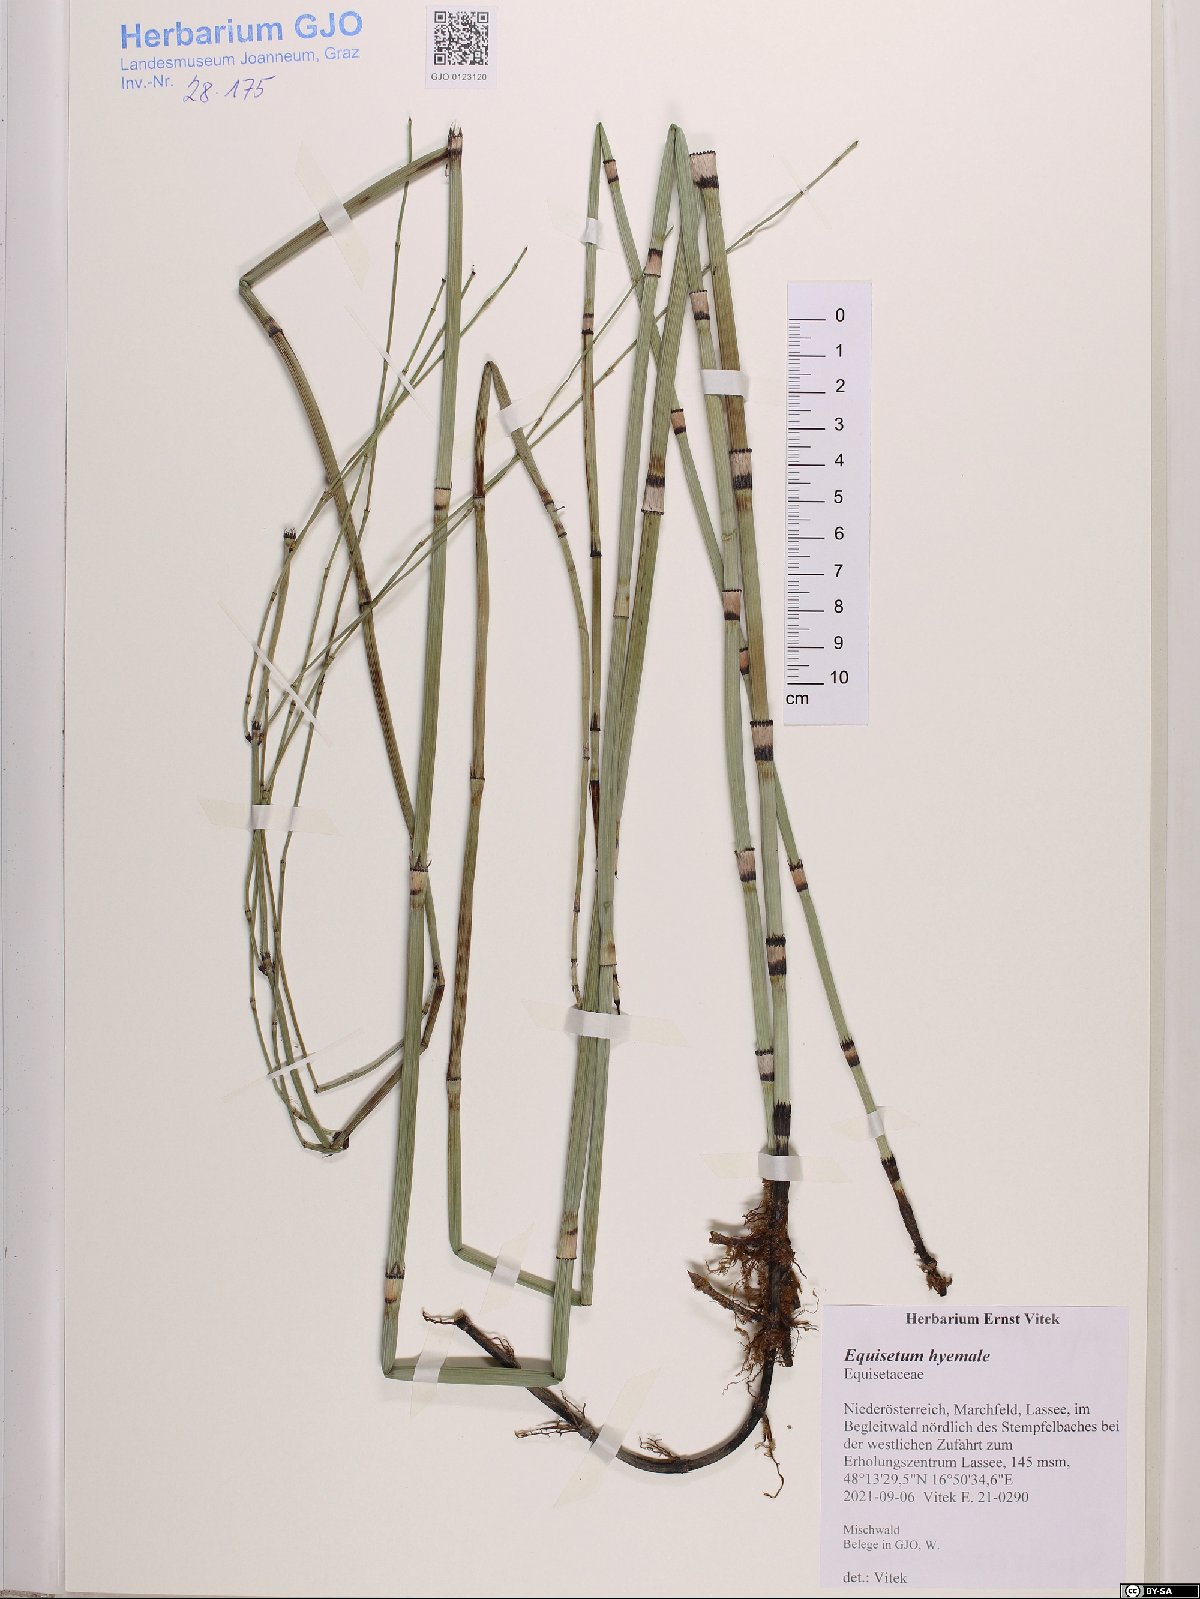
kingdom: Plantae
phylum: Tracheophyta
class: Polypodiopsida
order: Equisetales
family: Equisetaceae
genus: Equisetum
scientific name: Equisetum hyemale
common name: Rough horsetail
